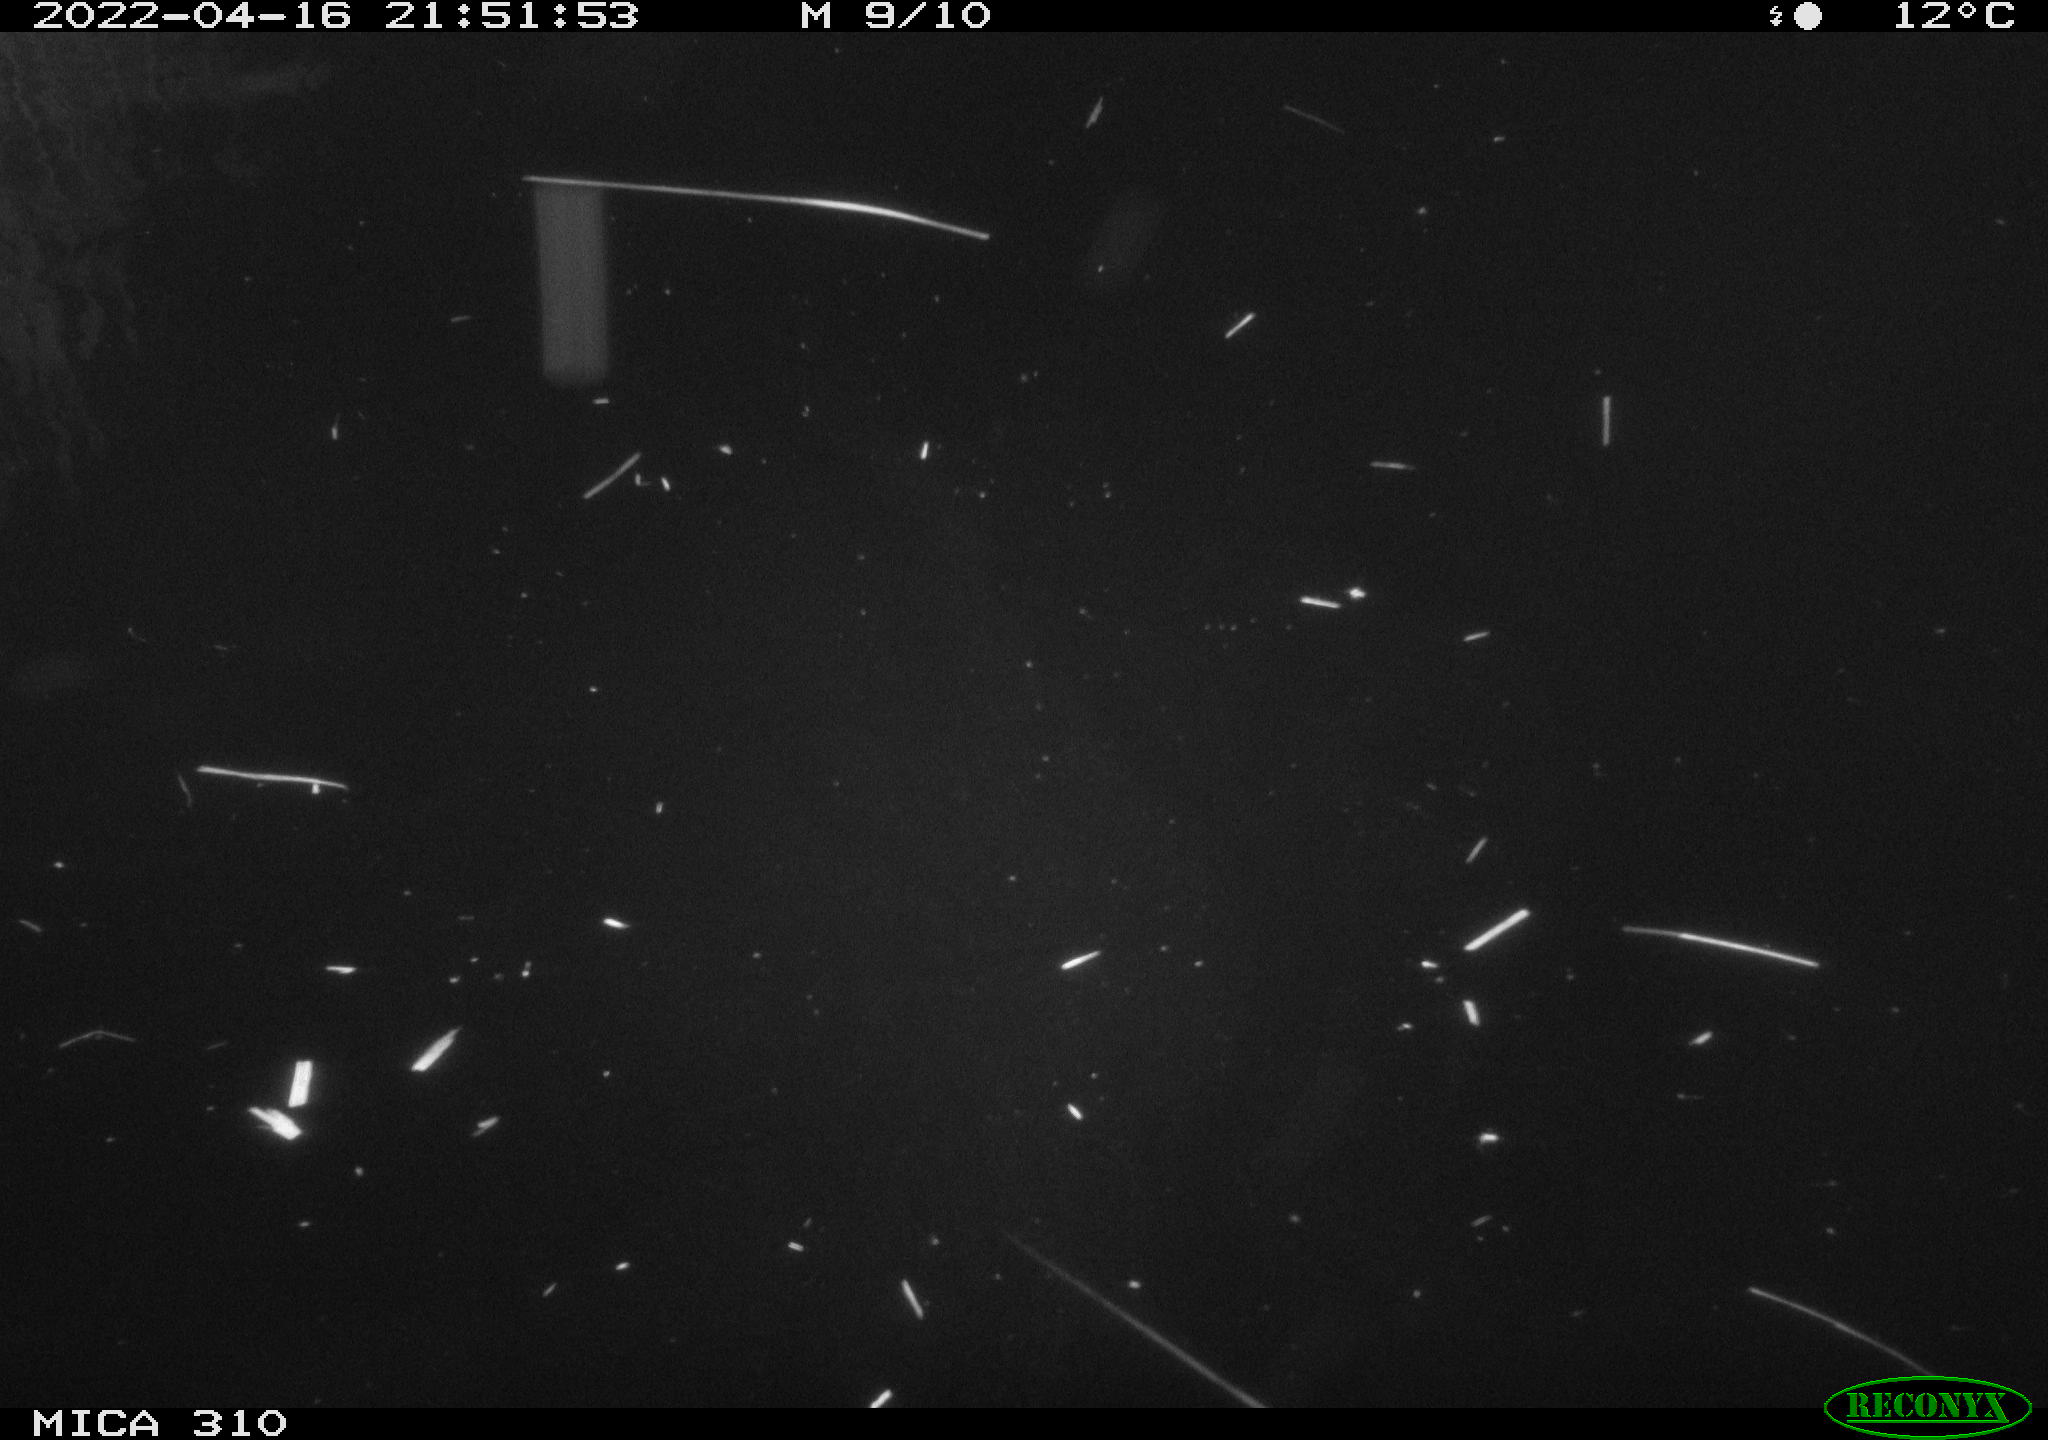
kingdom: Animalia
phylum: Chordata
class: Aves
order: Anseriformes
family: Anatidae
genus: Anas
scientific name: Anas platyrhynchos
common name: Mallard
